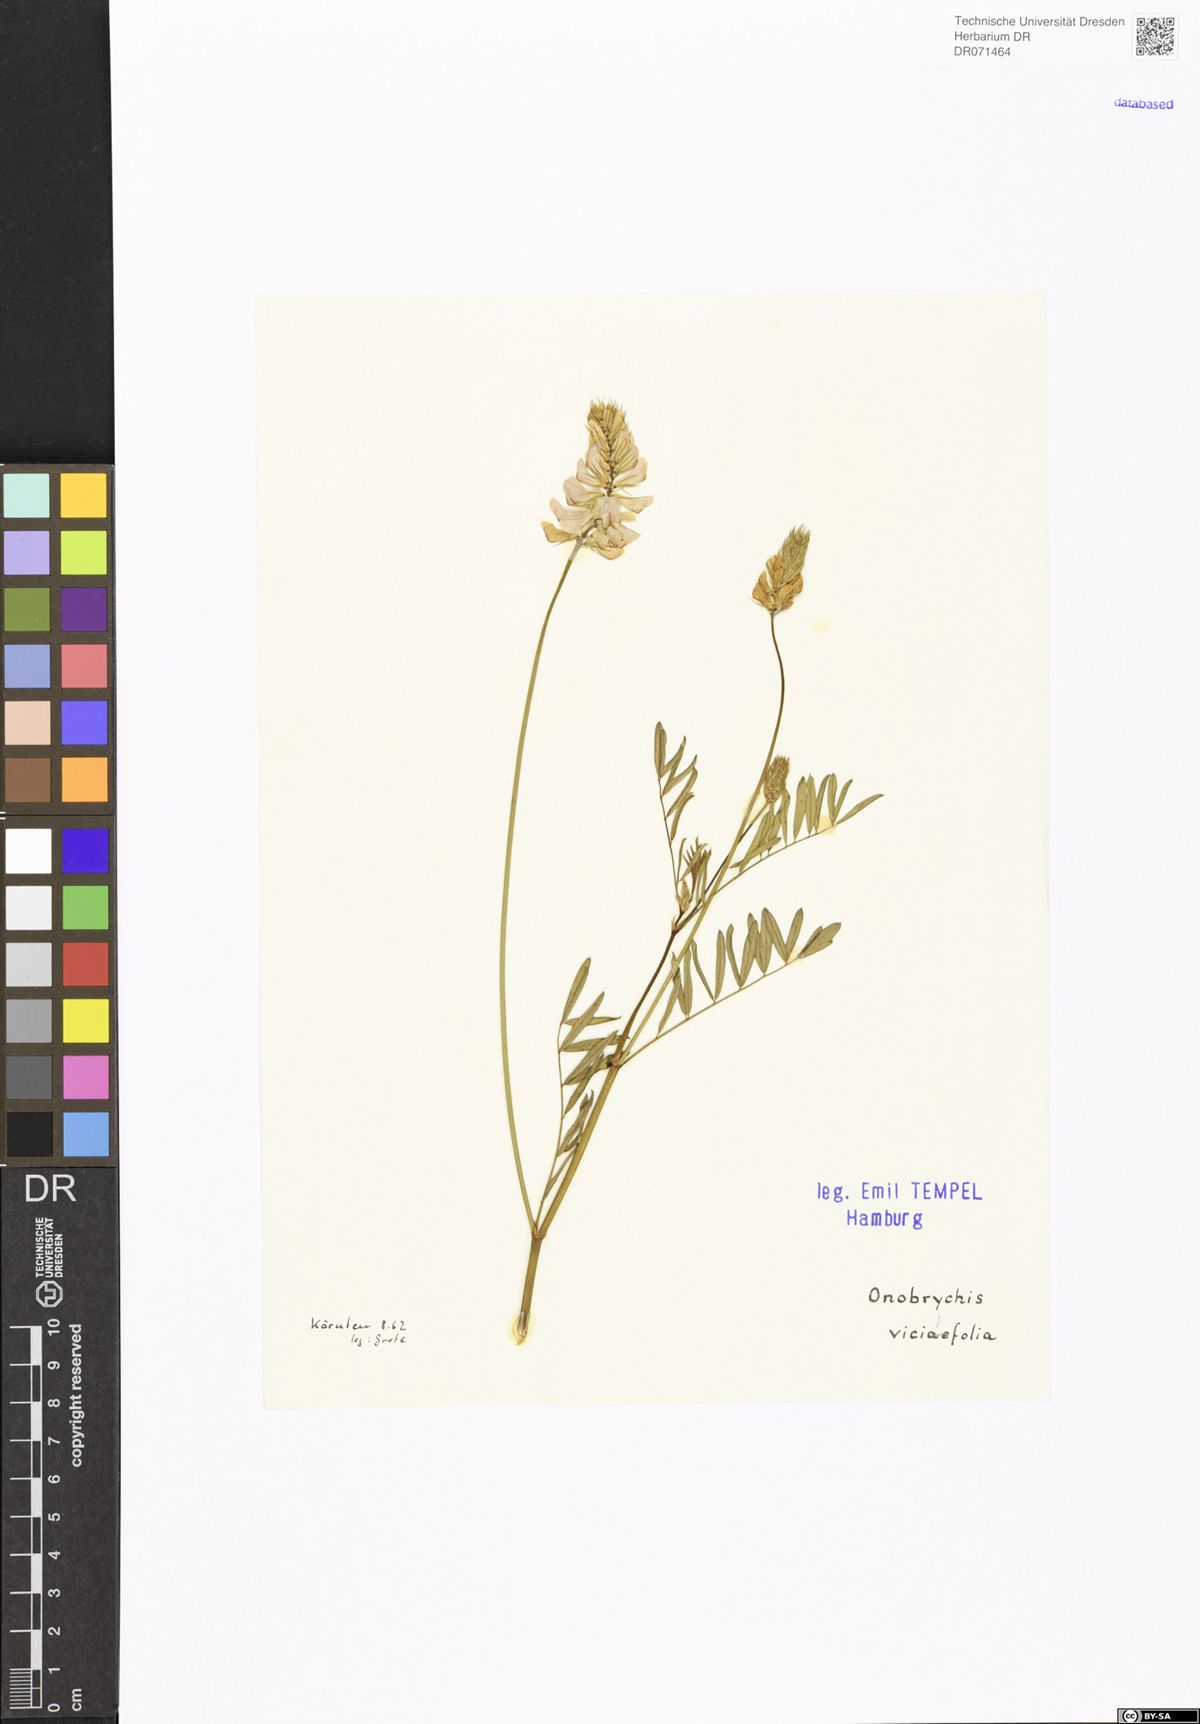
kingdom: Plantae
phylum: Tracheophyta
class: Magnoliopsida
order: Fabales
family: Fabaceae
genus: Onobrychis
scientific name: Onobrychis viciifolia
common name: Sainfoin
